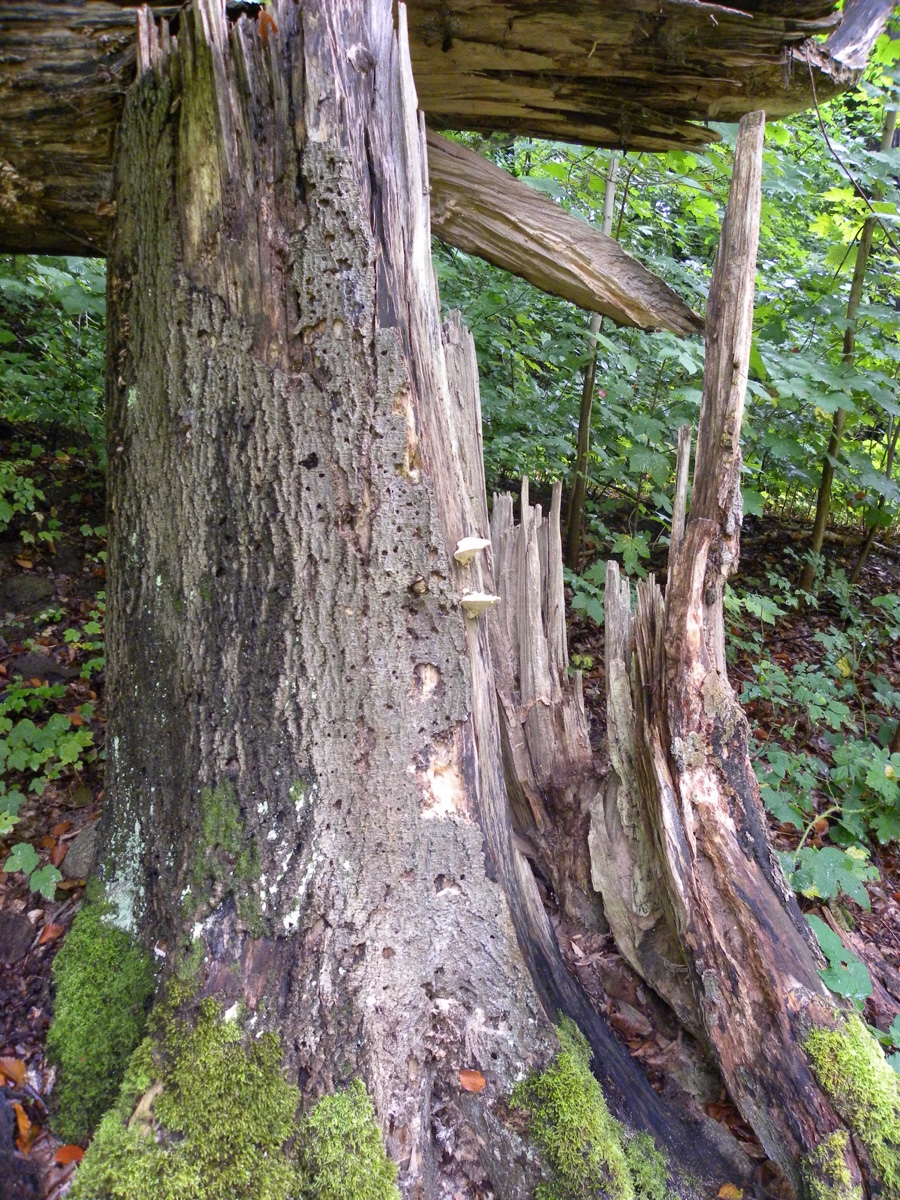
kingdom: Fungi
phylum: Basidiomycota
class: Agaricomycetes
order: Polyporales
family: Polyporaceae
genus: Trametes
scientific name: Trametes gibbosa
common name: puklet læderporesvamp
